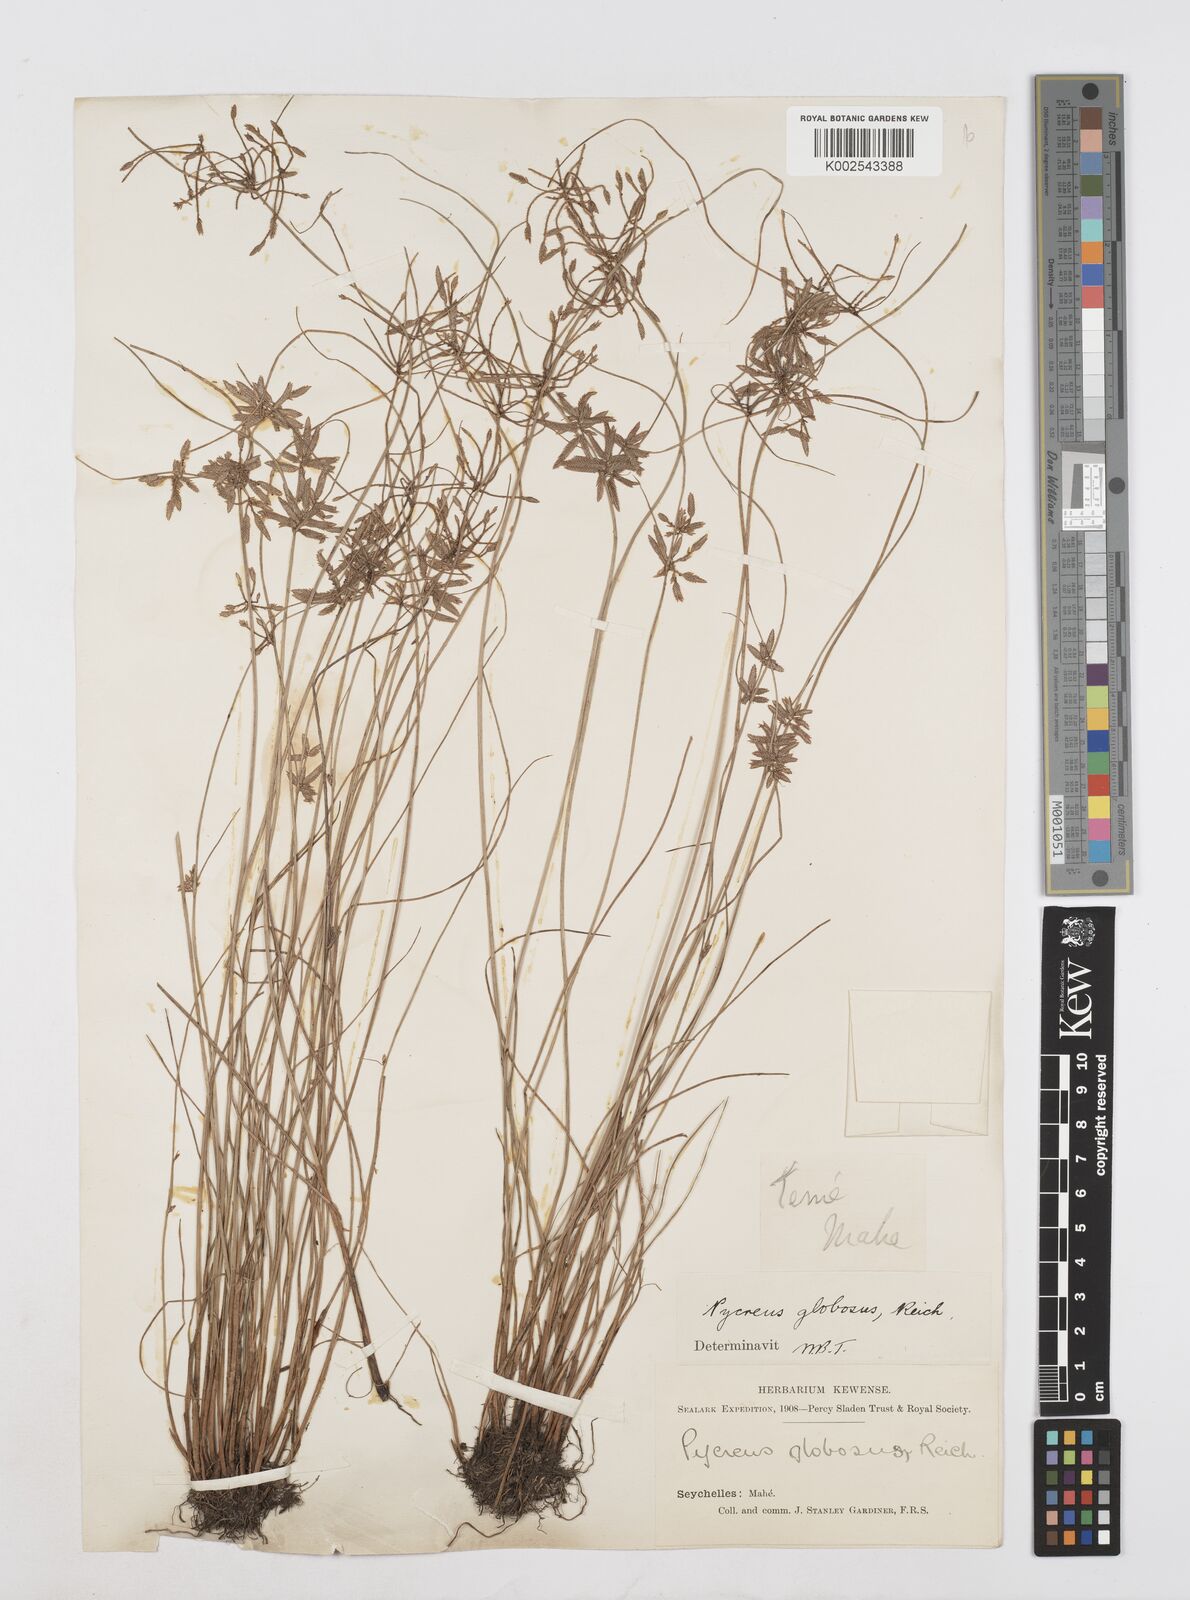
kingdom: Plantae
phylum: Tracheophyta
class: Liliopsida
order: Poales
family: Cyperaceae
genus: Cyperus
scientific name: Cyperus flavidus
